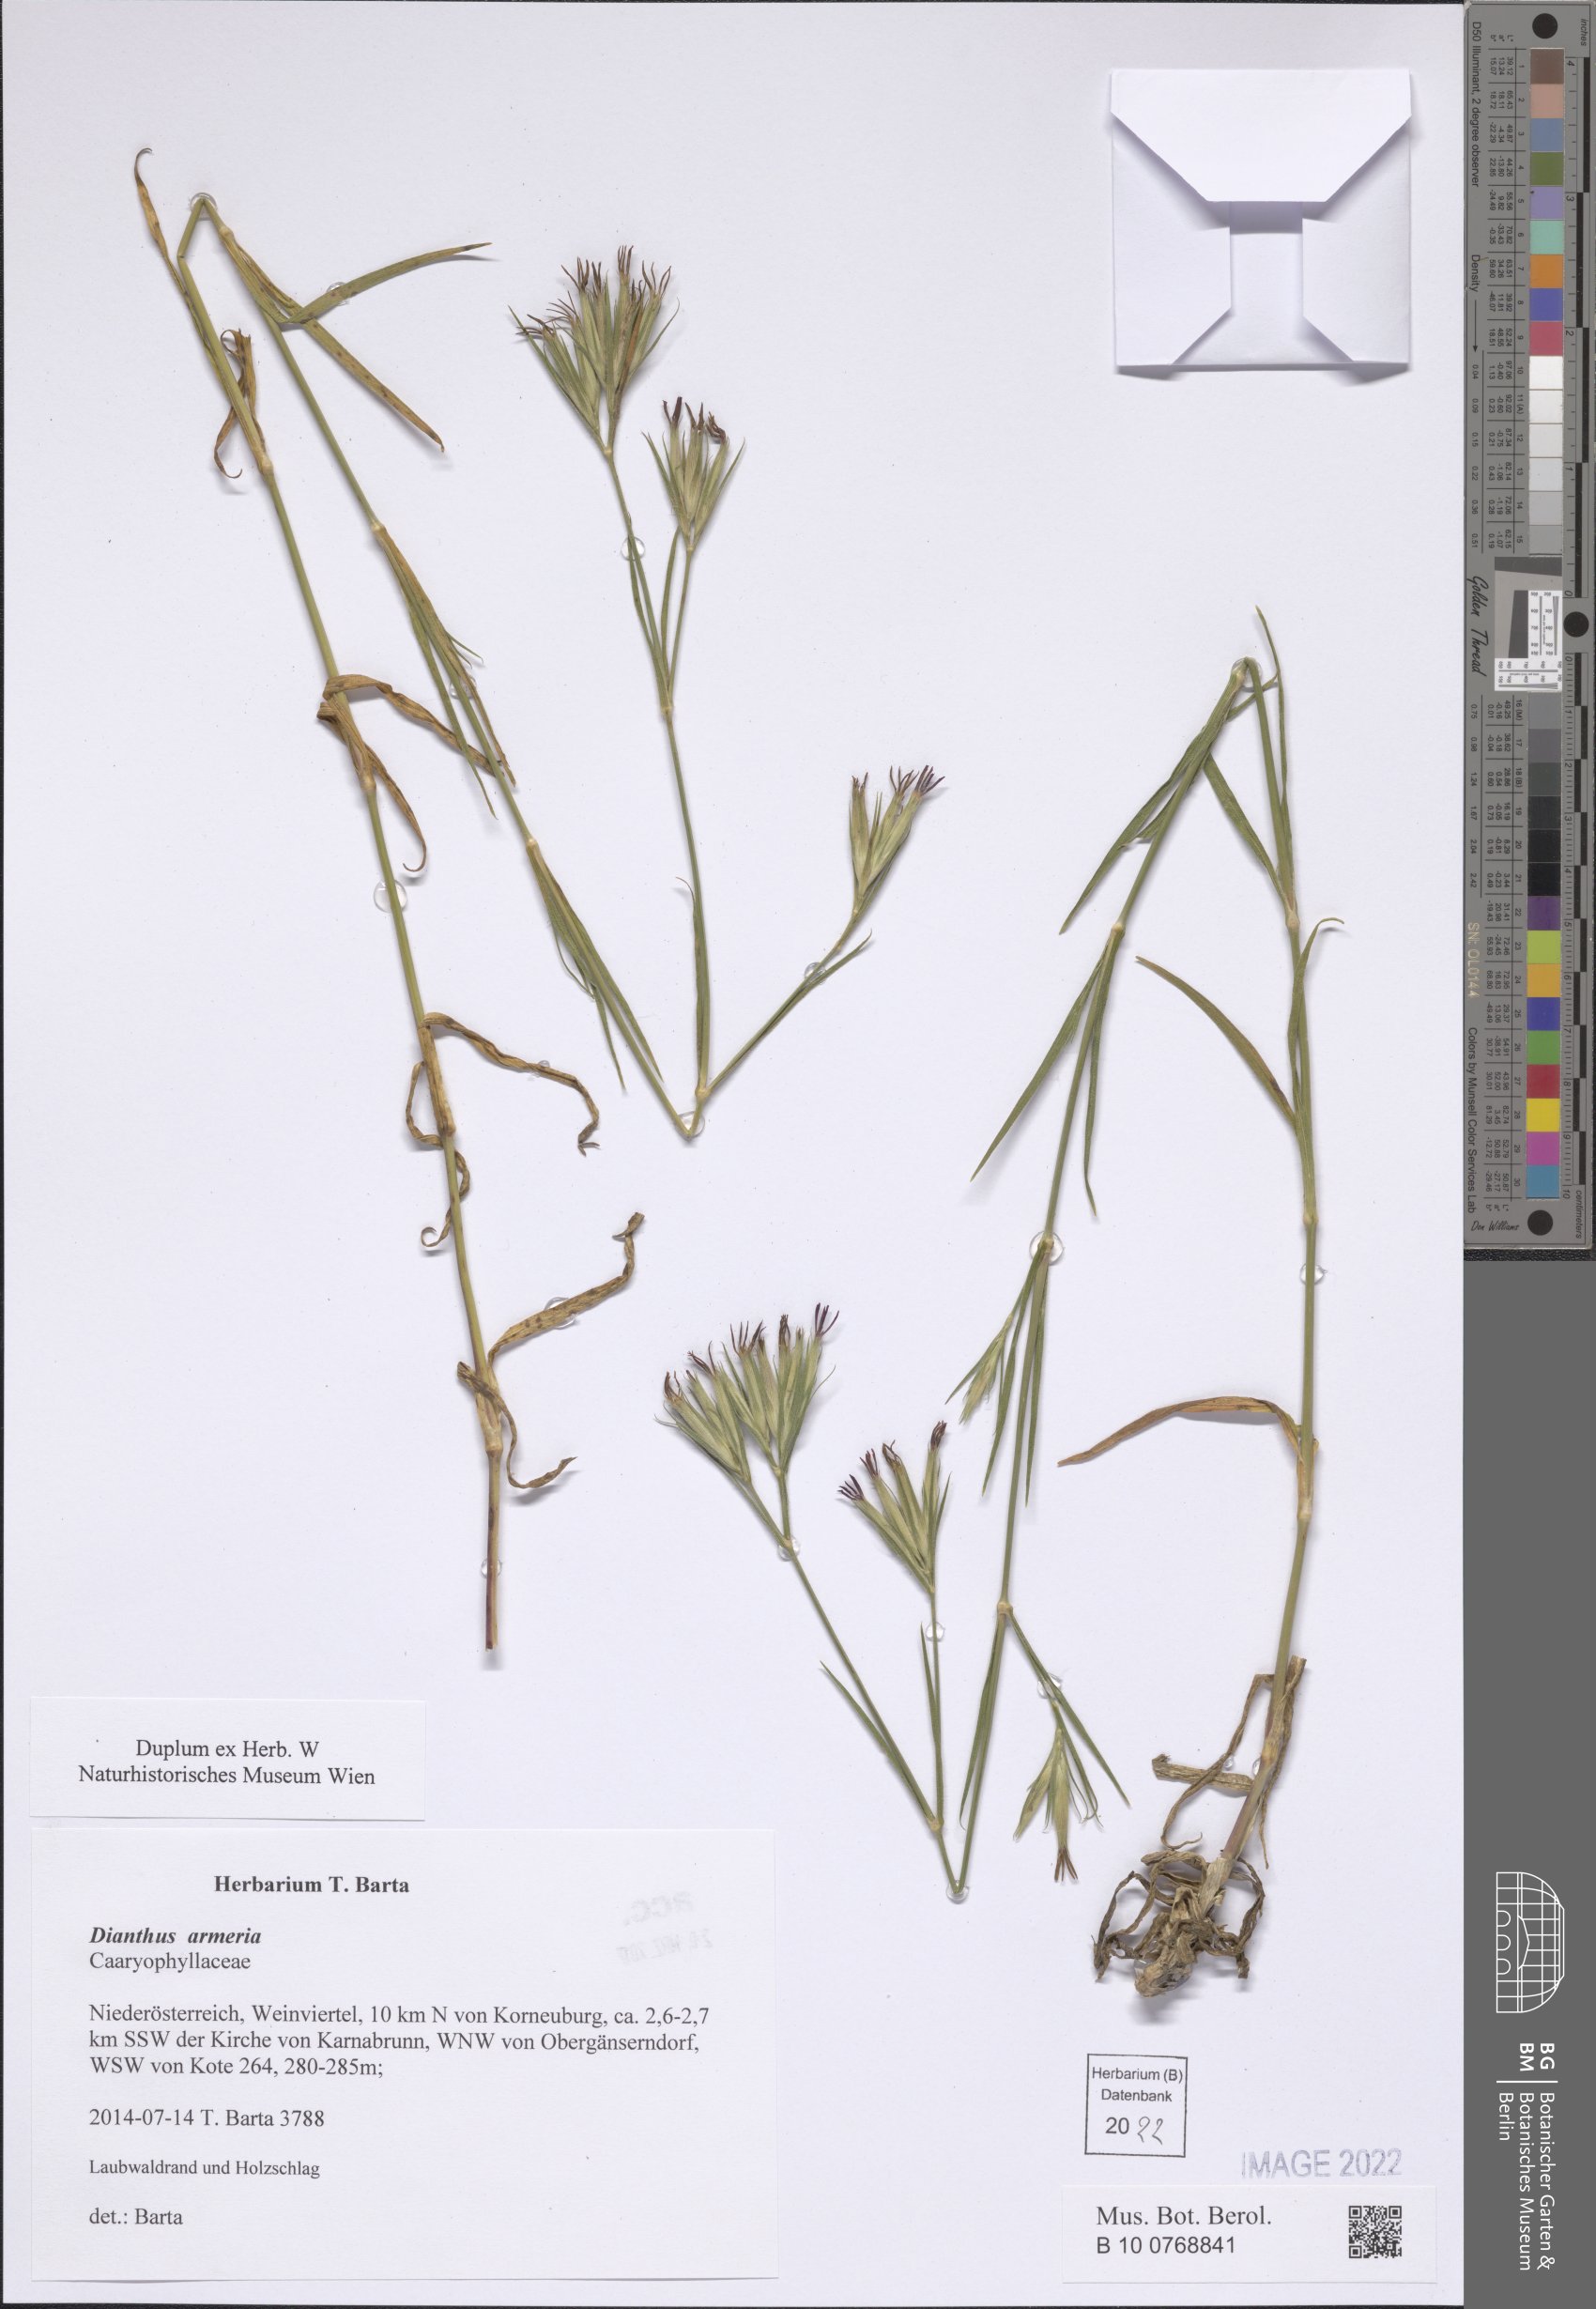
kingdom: Plantae
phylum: Tracheophyta
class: Magnoliopsida
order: Caryophyllales
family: Caryophyllaceae
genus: Dianthus
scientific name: Dianthus armeria
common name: Deptford pink
